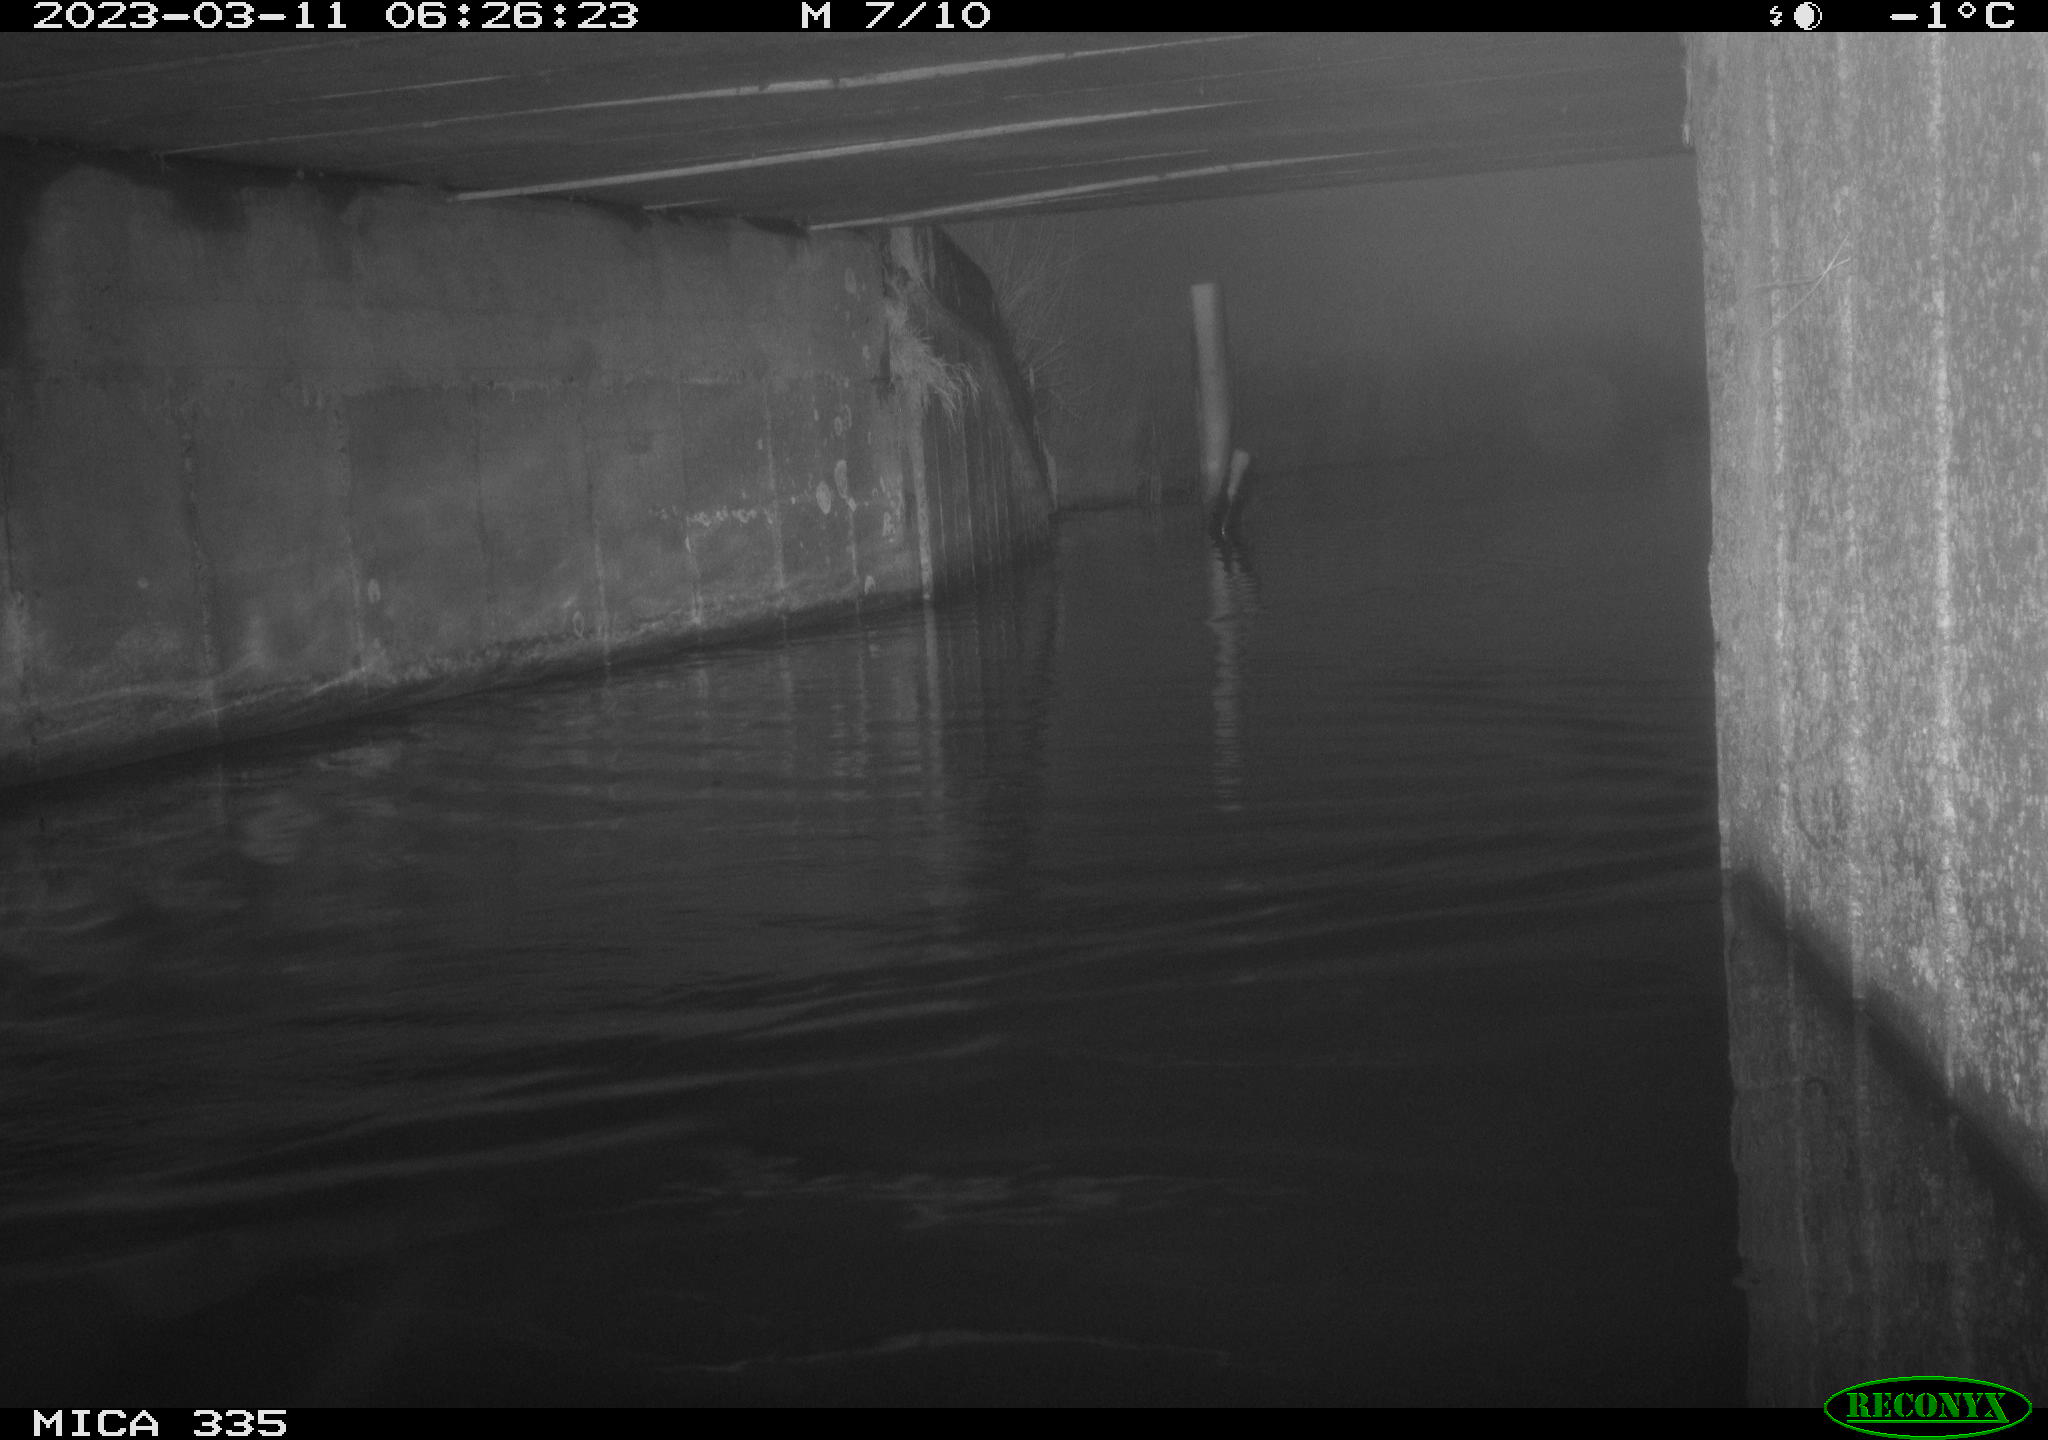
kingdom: Animalia
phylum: Chordata
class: Aves
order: Anseriformes
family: Anatidae
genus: Anas
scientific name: Anas
